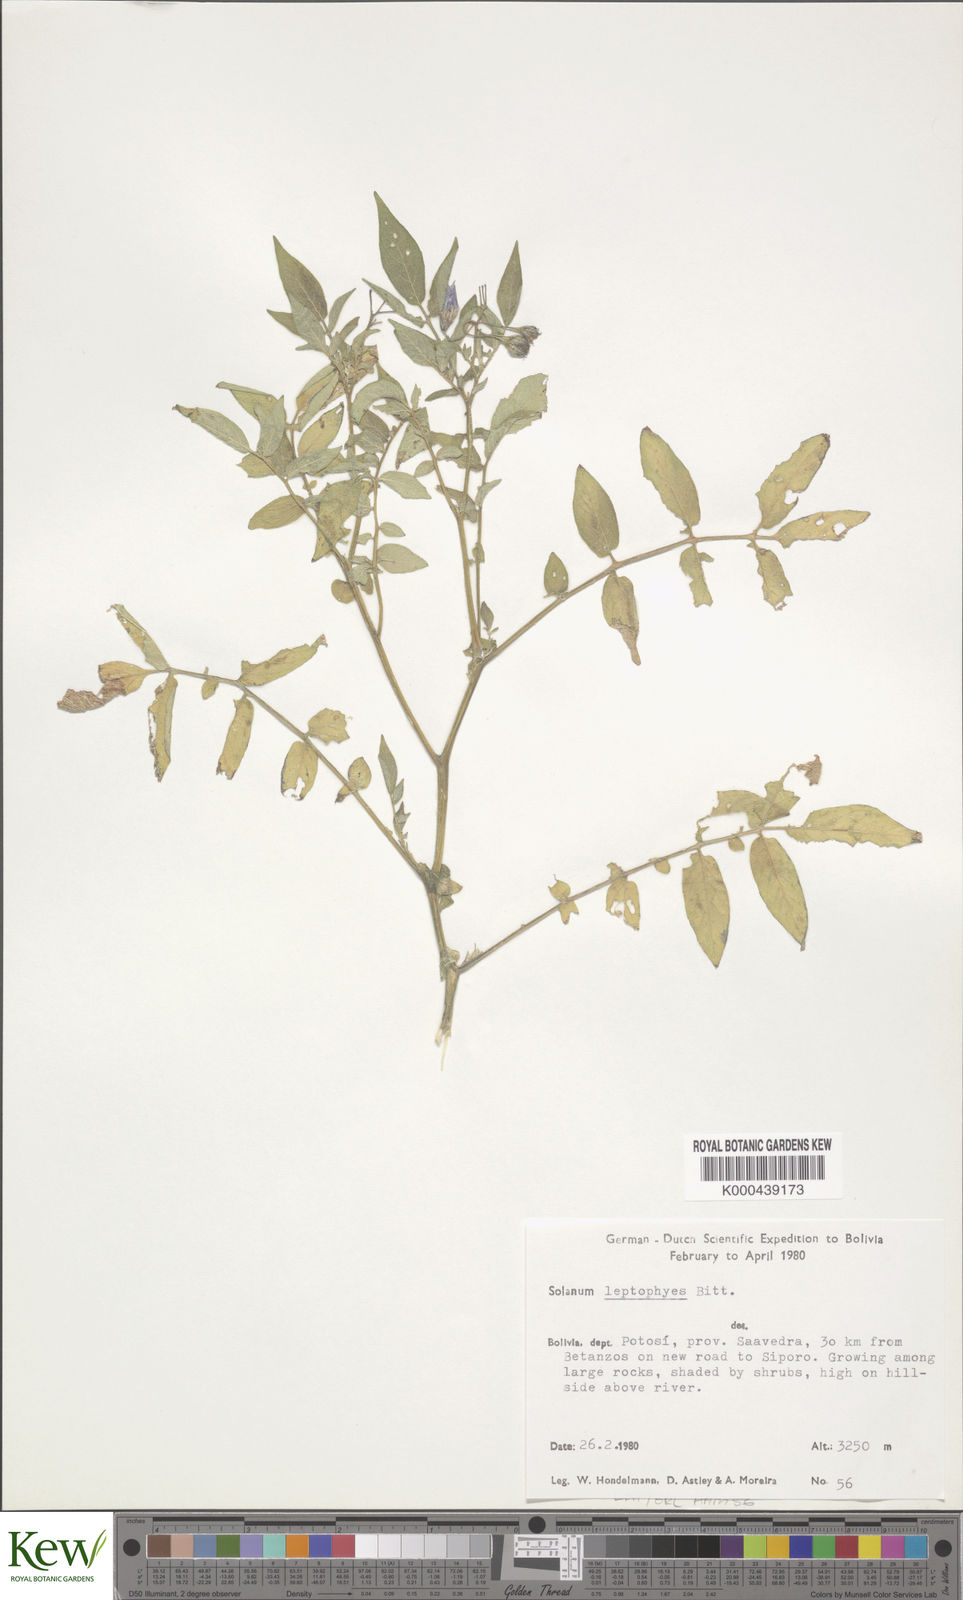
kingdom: Plantae
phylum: Tracheophyta
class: Magnoliopsida
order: Solanales
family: Solanaceae
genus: Solanum
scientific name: Solanum brevicaule
